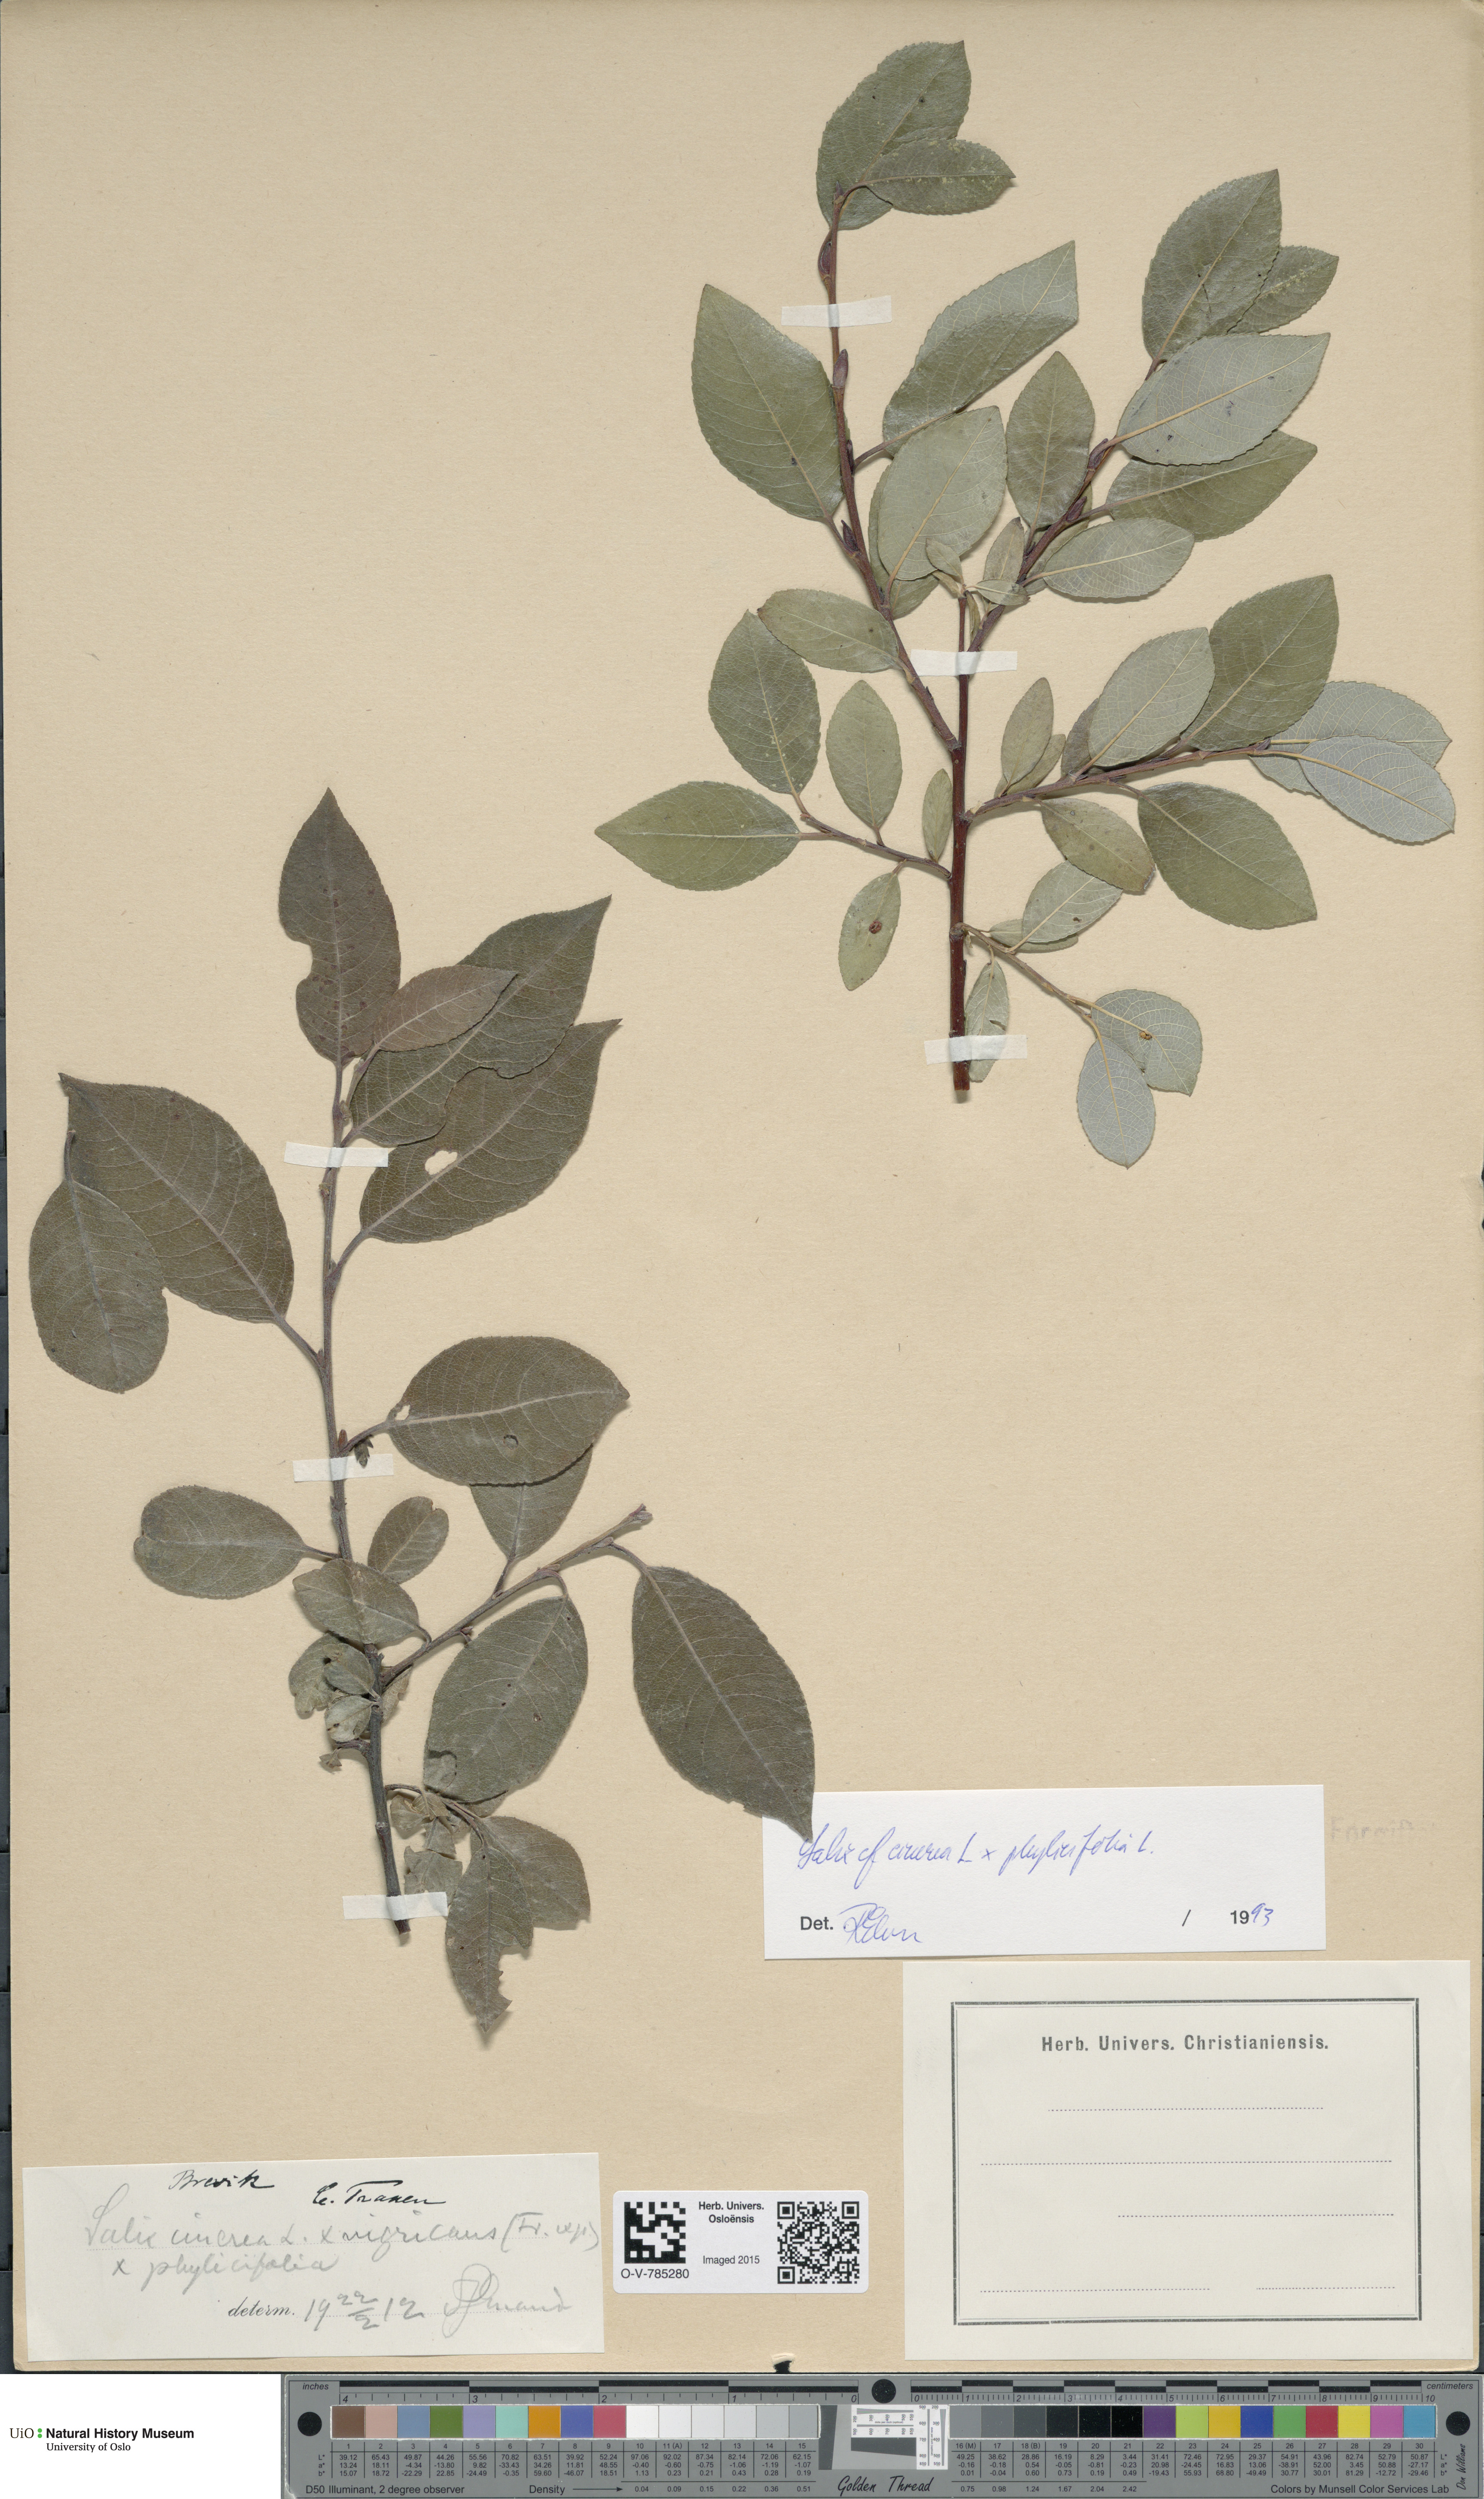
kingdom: Plantae
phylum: Tracheophyta
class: Magnoliopsida
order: Malpighiales
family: Salicaceae
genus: Salix
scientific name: Salix
